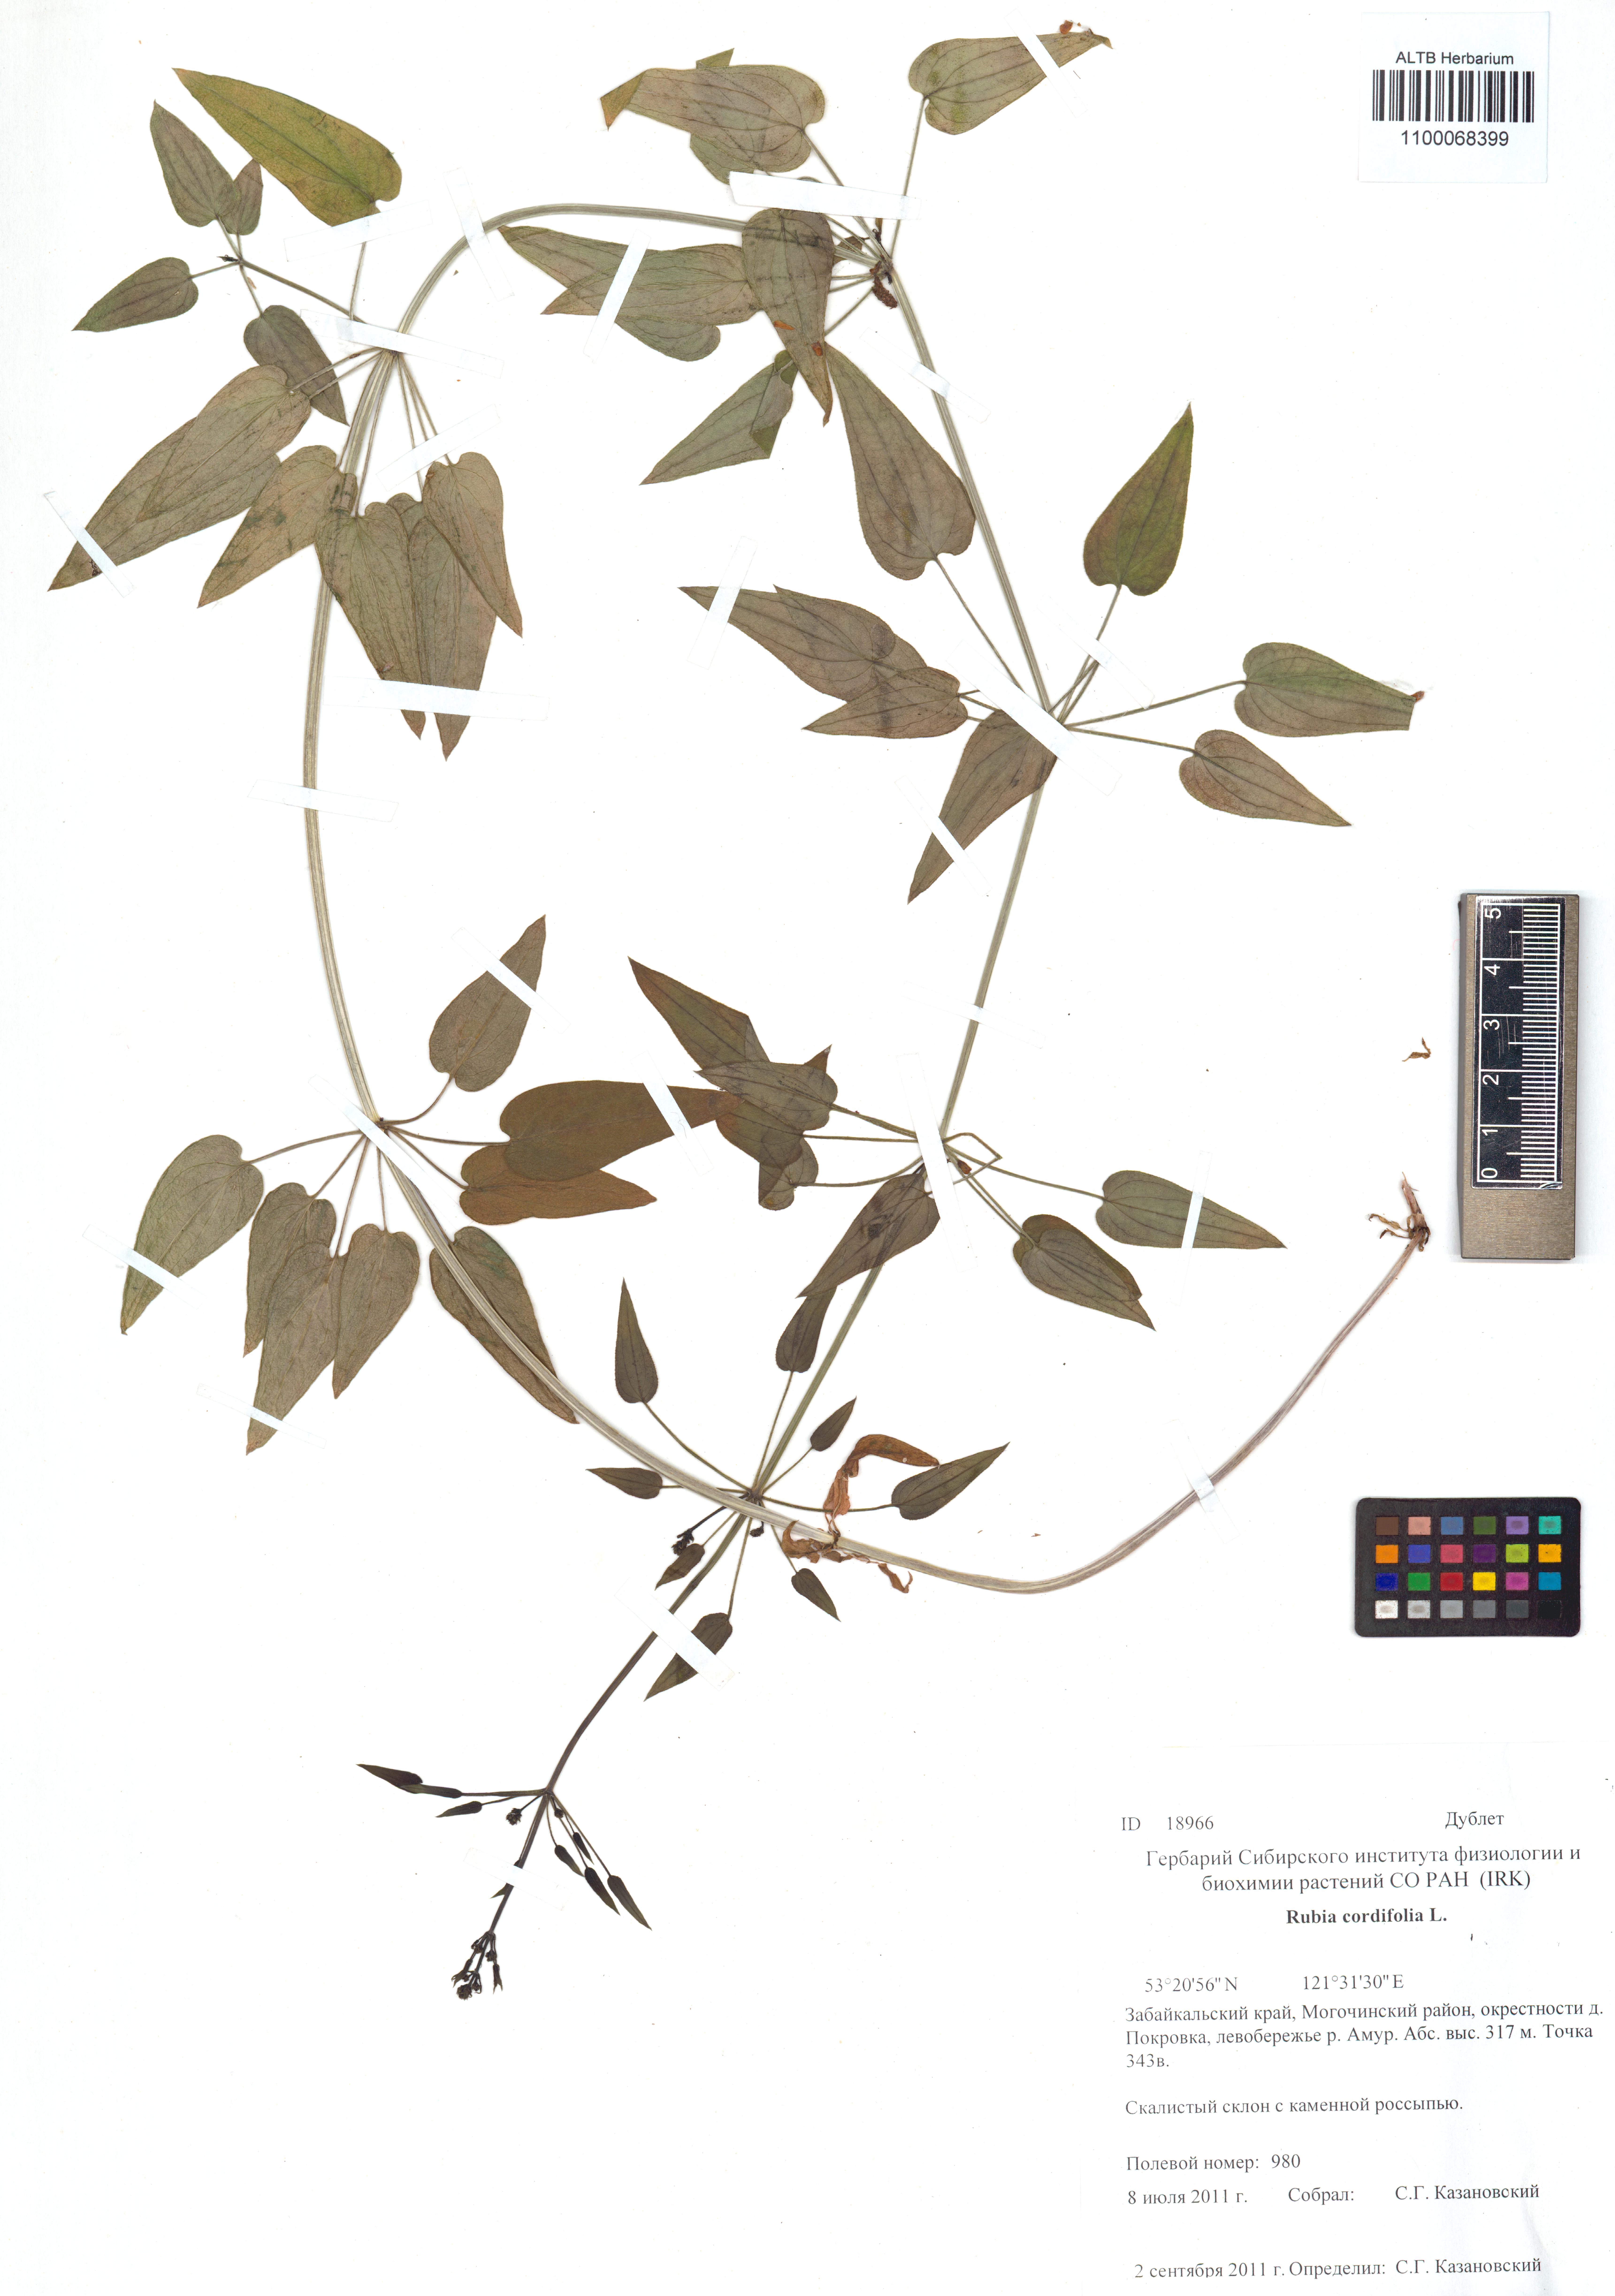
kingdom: Plantae
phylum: Tracheophyta
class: Magnoliopsida
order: Gentianales
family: Rubiaceae
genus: Rubia
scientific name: Rubia cordifolia
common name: Indian madder
